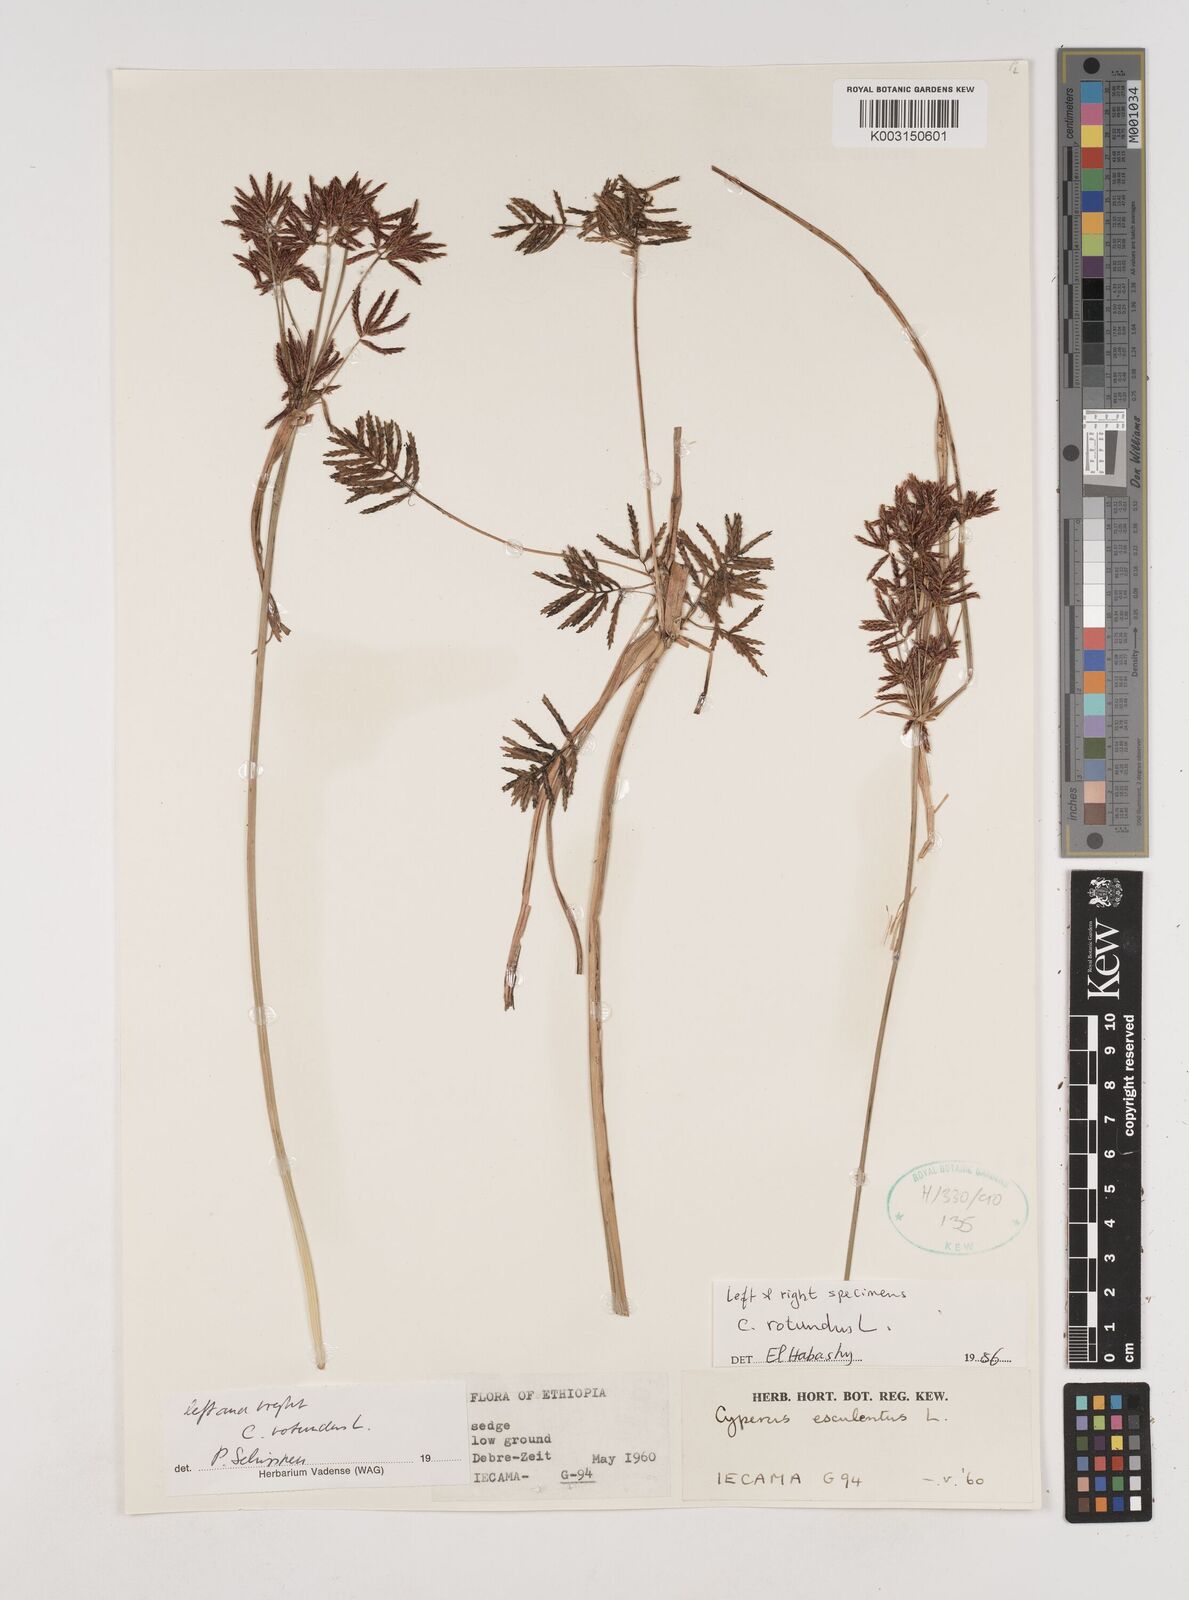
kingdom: Plantae
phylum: Tracheophyta
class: Liliopsida
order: Poales
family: Cyperaceae
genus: Cyperus
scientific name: Cyperus esculentus
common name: Yellow nutsedge
